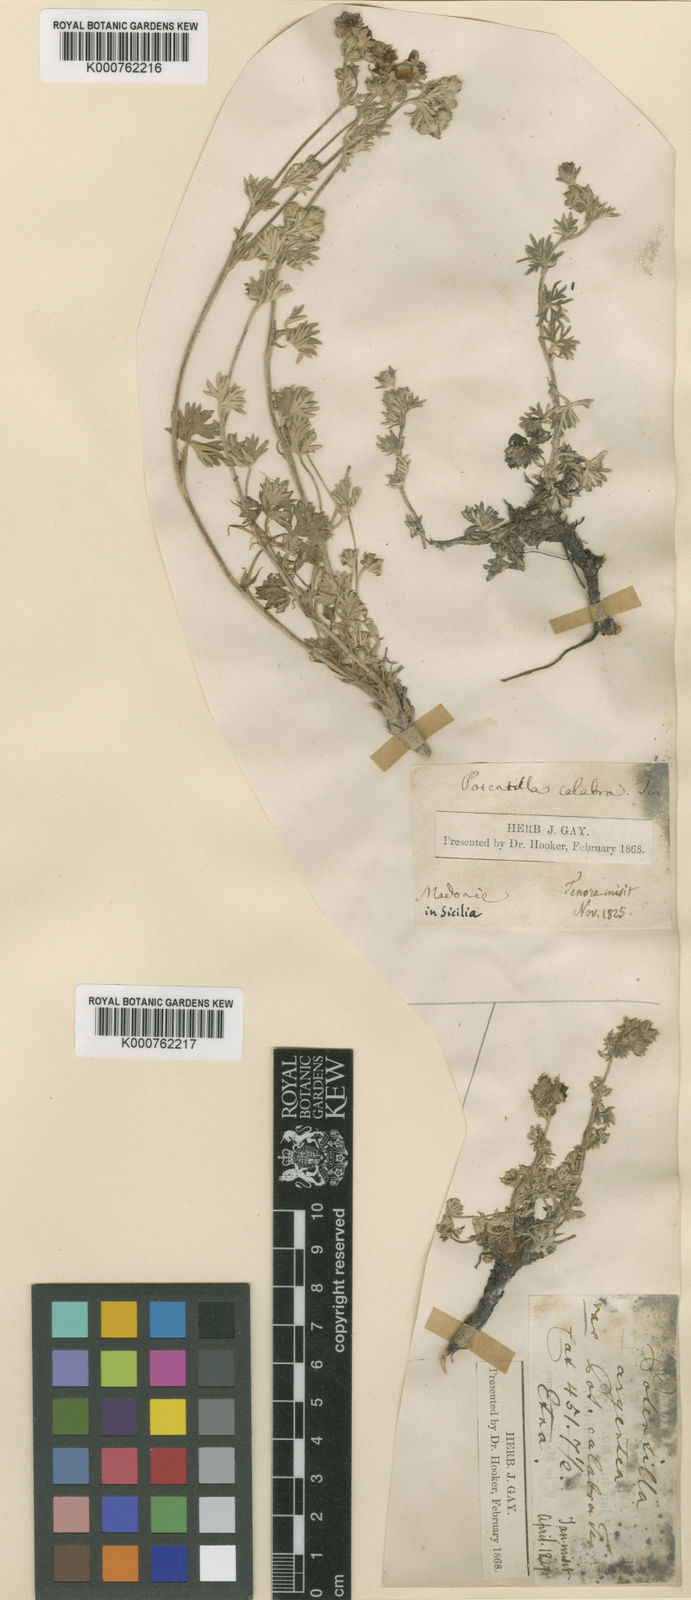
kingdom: Plantae
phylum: Tracheophyta
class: Magnoliopsida
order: Rosales
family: Rosaceae
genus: Potentilla
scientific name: Potentilla argentea
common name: Hoary cinquefoil
